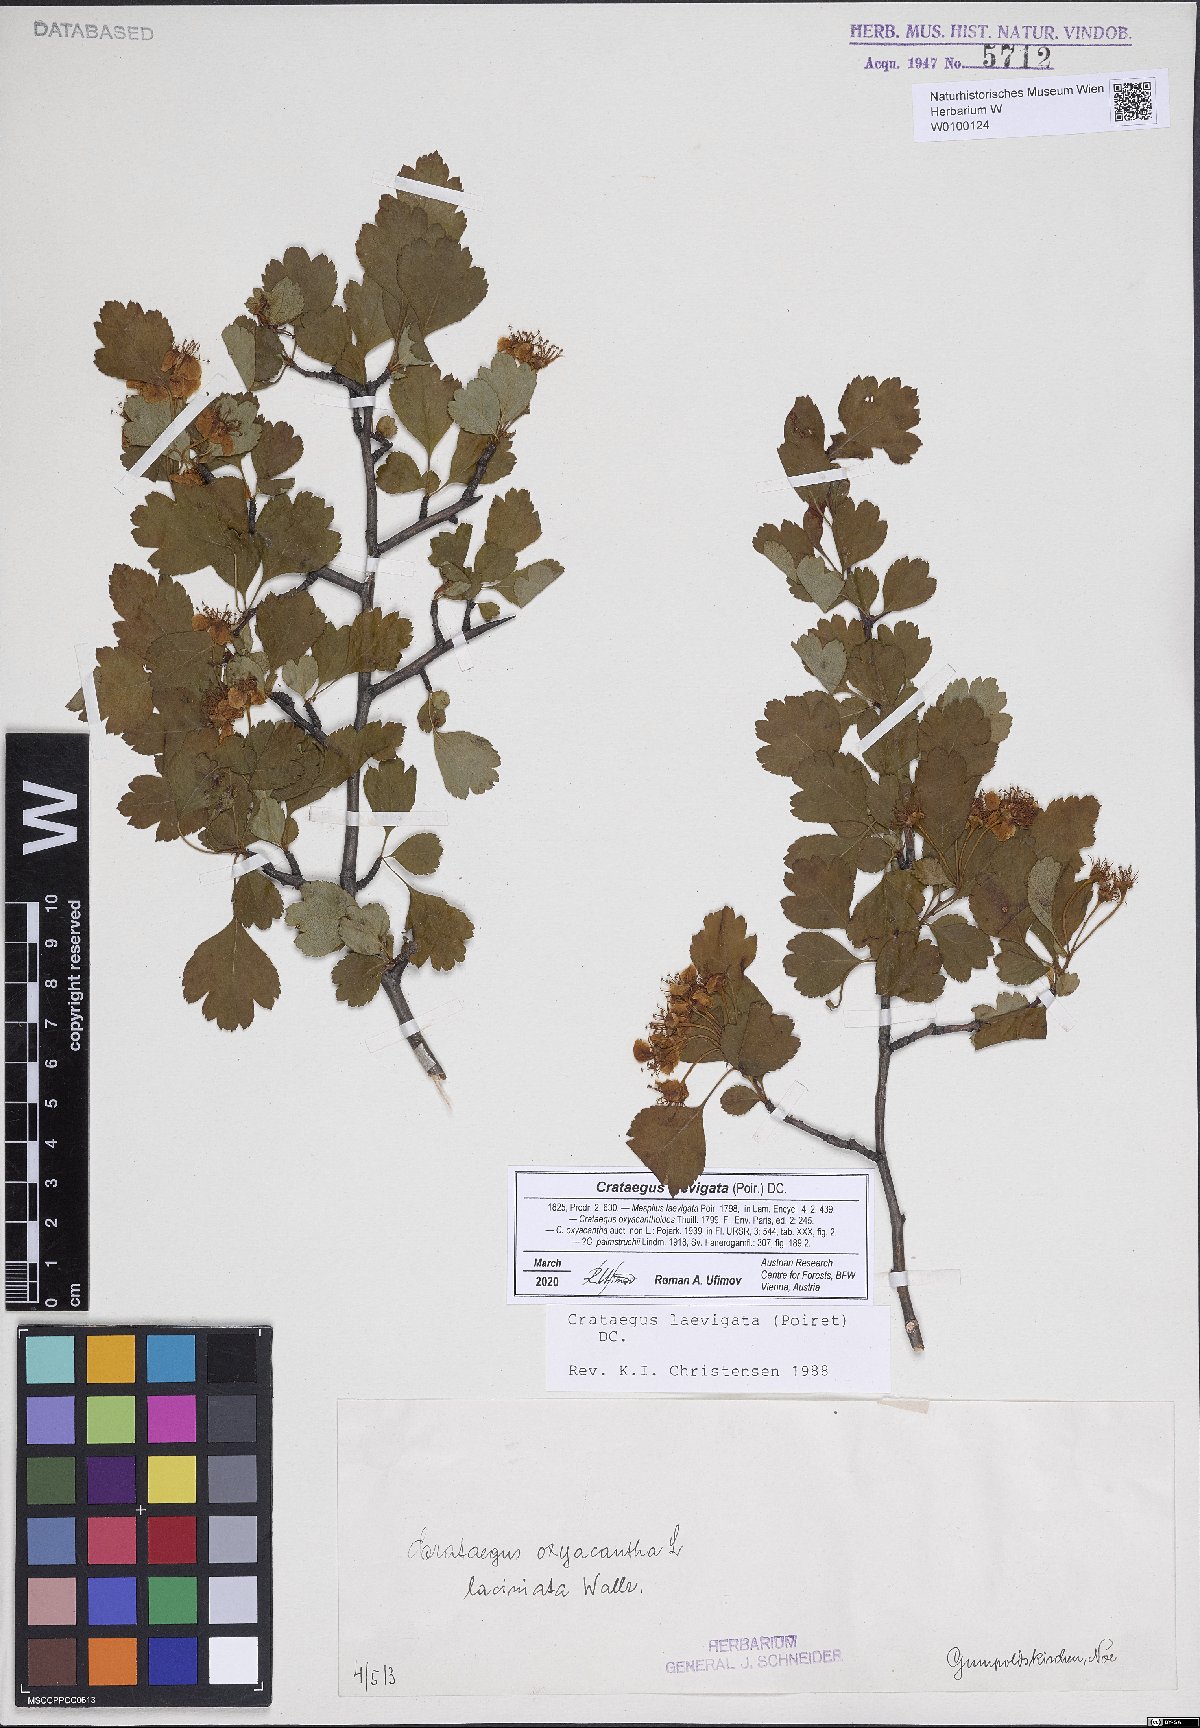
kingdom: Plantae
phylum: Tracheophyta
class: Magnoliopsida
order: Rosales
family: Rosaceae
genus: Crataegus
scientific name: Crataegus laevigata
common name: Midland hawthorn
